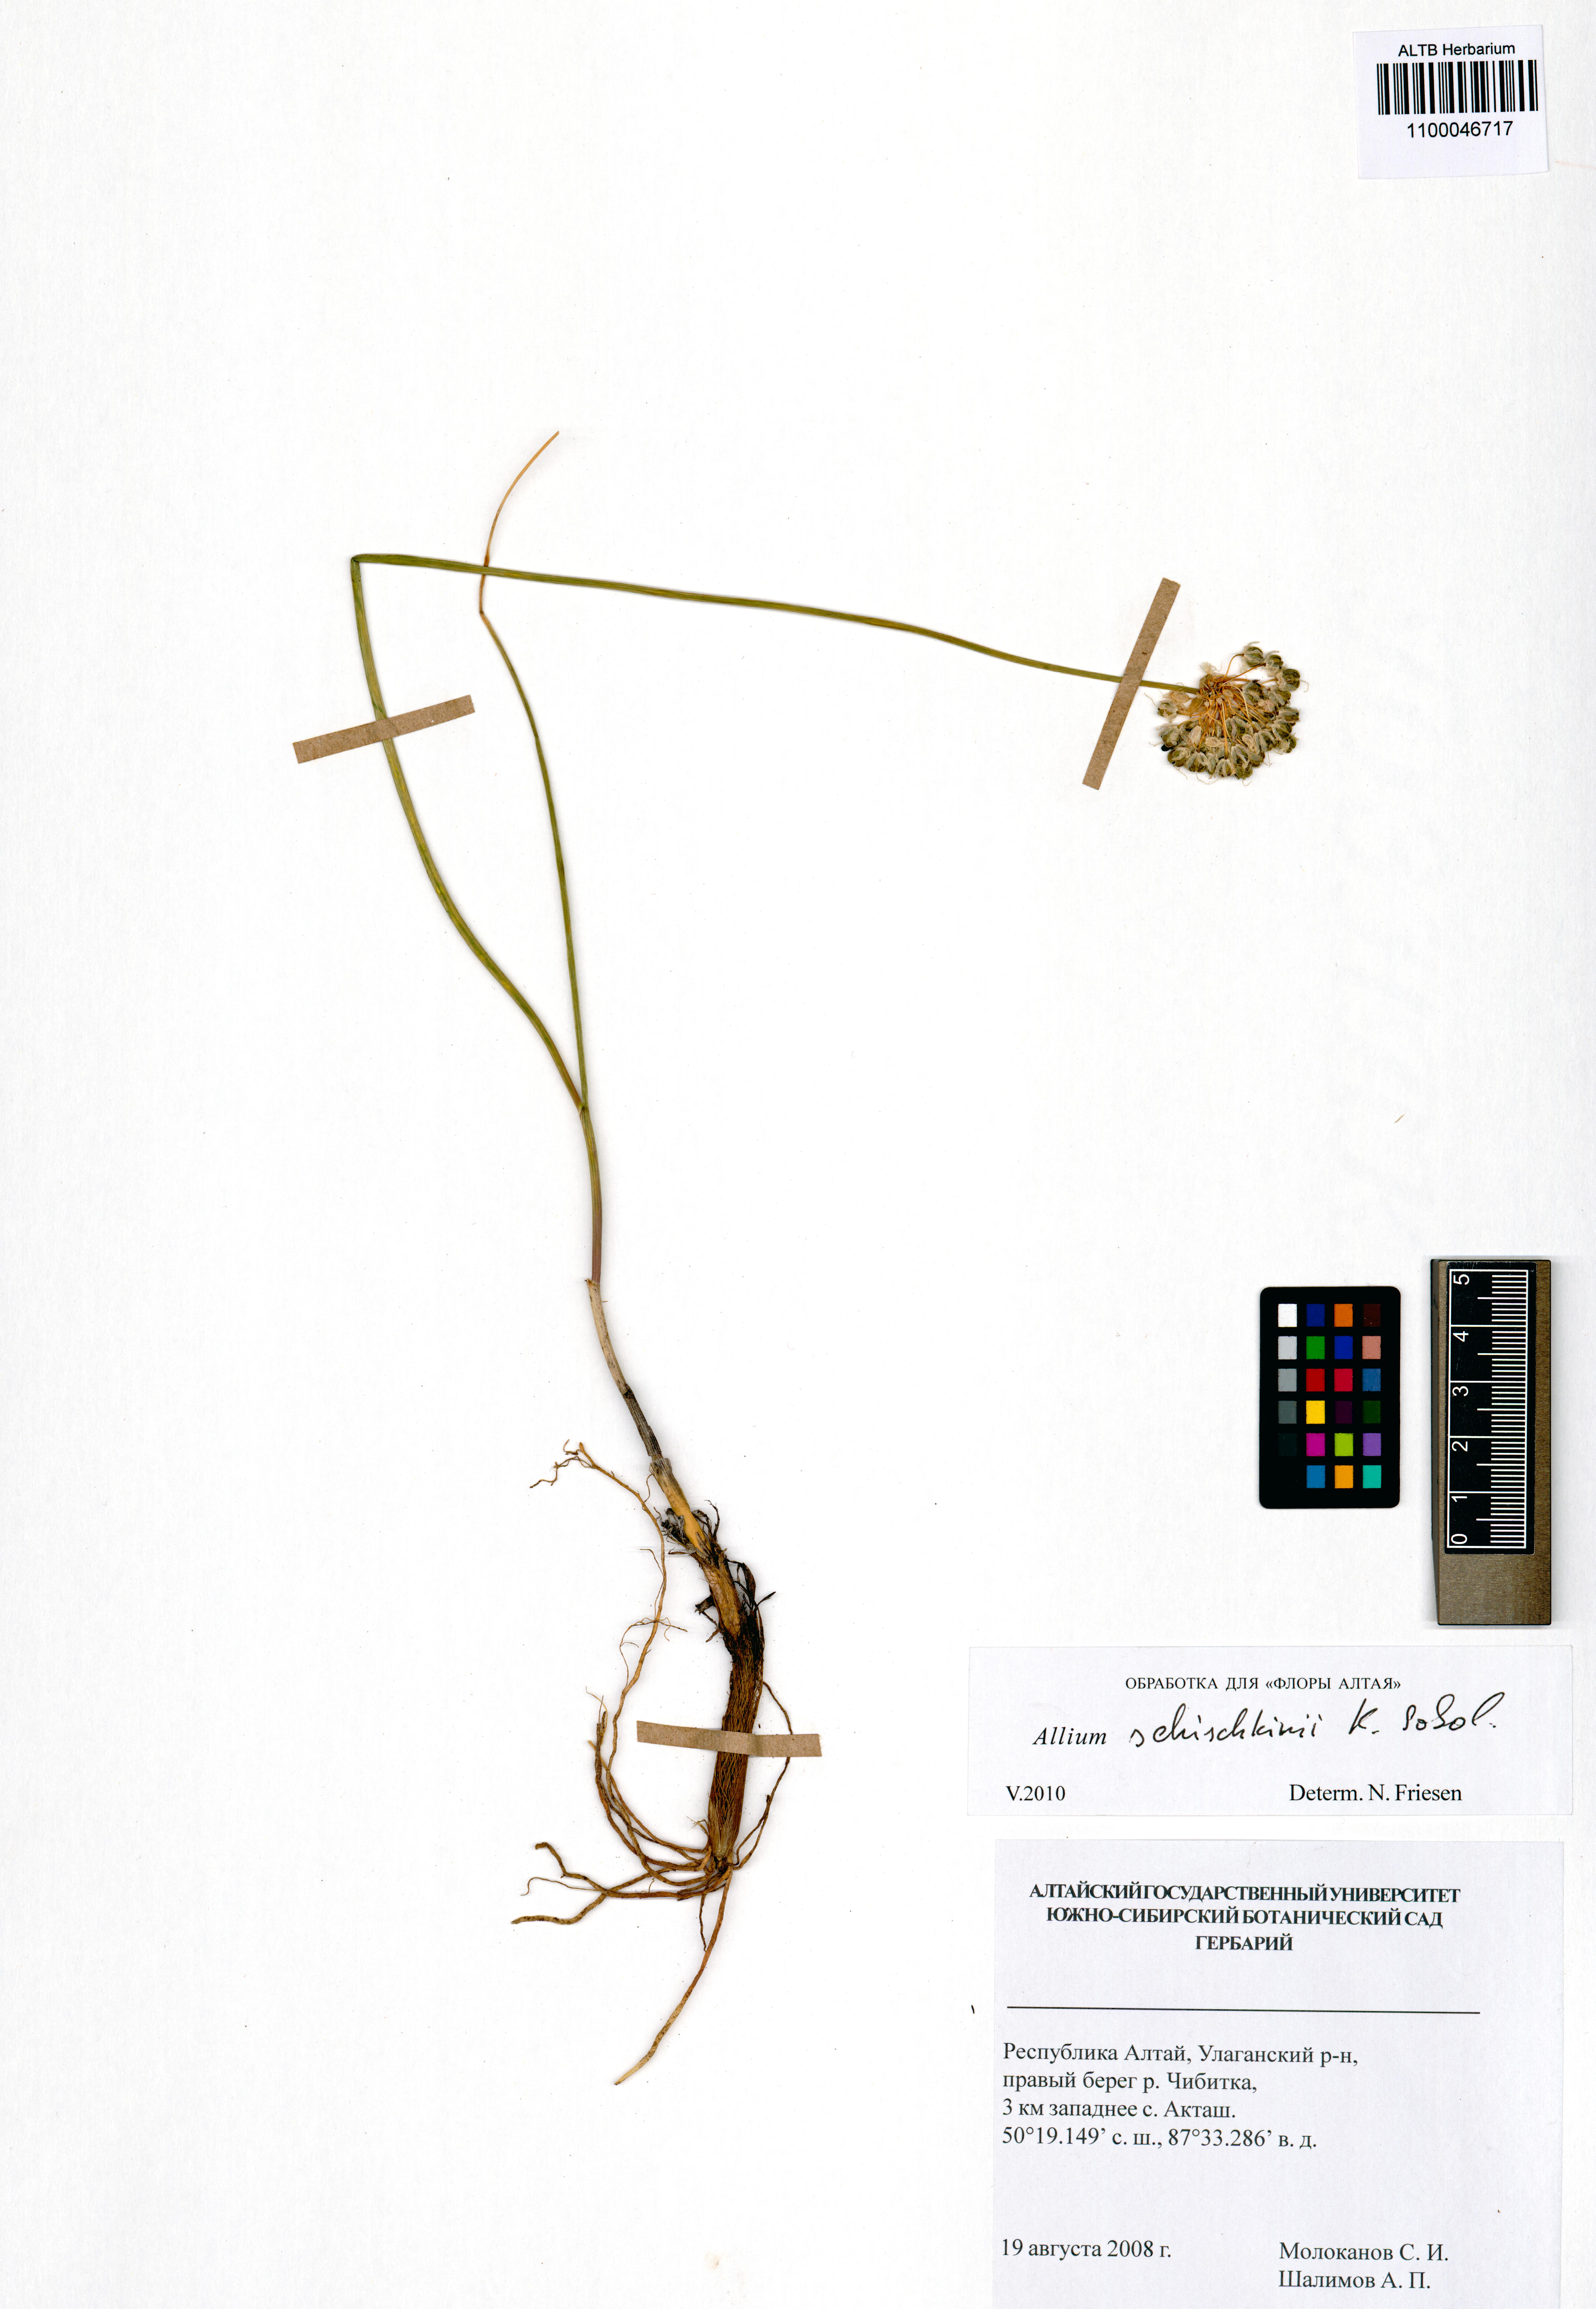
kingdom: Plantae
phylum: Tracheophyta
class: Liliopsida
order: Asparagales
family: Amaryllidaceae
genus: Allium
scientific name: Allium schischkinii
